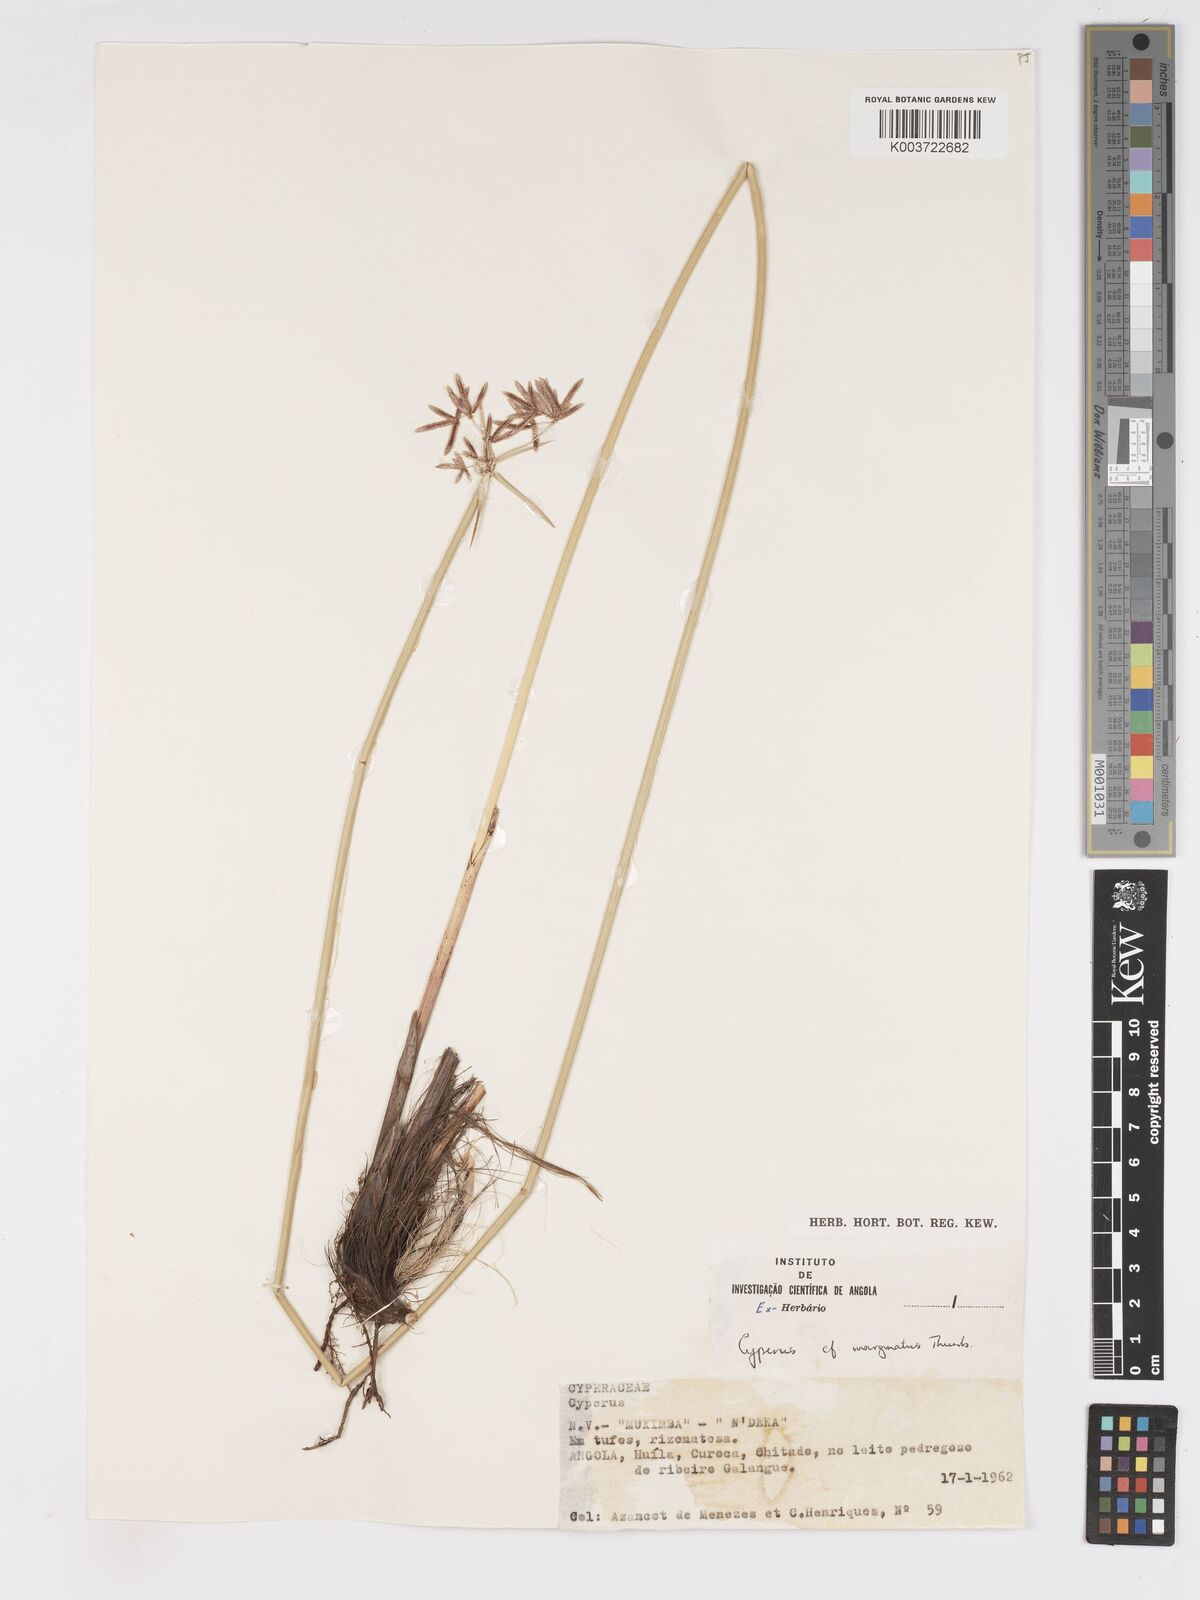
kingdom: Plantae
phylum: Tracheophyta
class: Liliopsida
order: Poales
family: Cyperaceae
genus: Cyperus
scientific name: Cyperus marginatus
